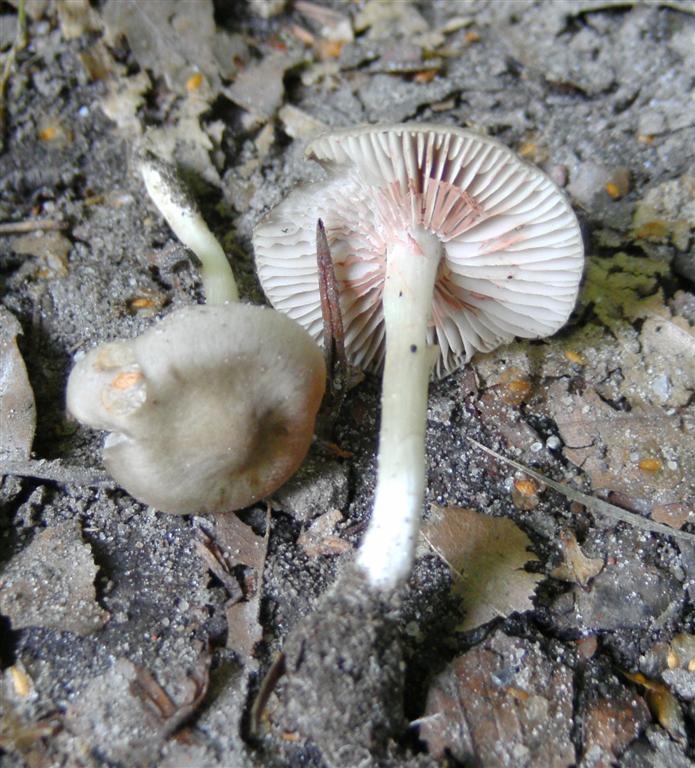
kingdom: Fungi
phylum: Basidiomycota
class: Agaricomycetes
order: Agaricales
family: Entolomataceae
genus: Entoloma
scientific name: Entoloma sordidulum
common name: smudsig rødblad
